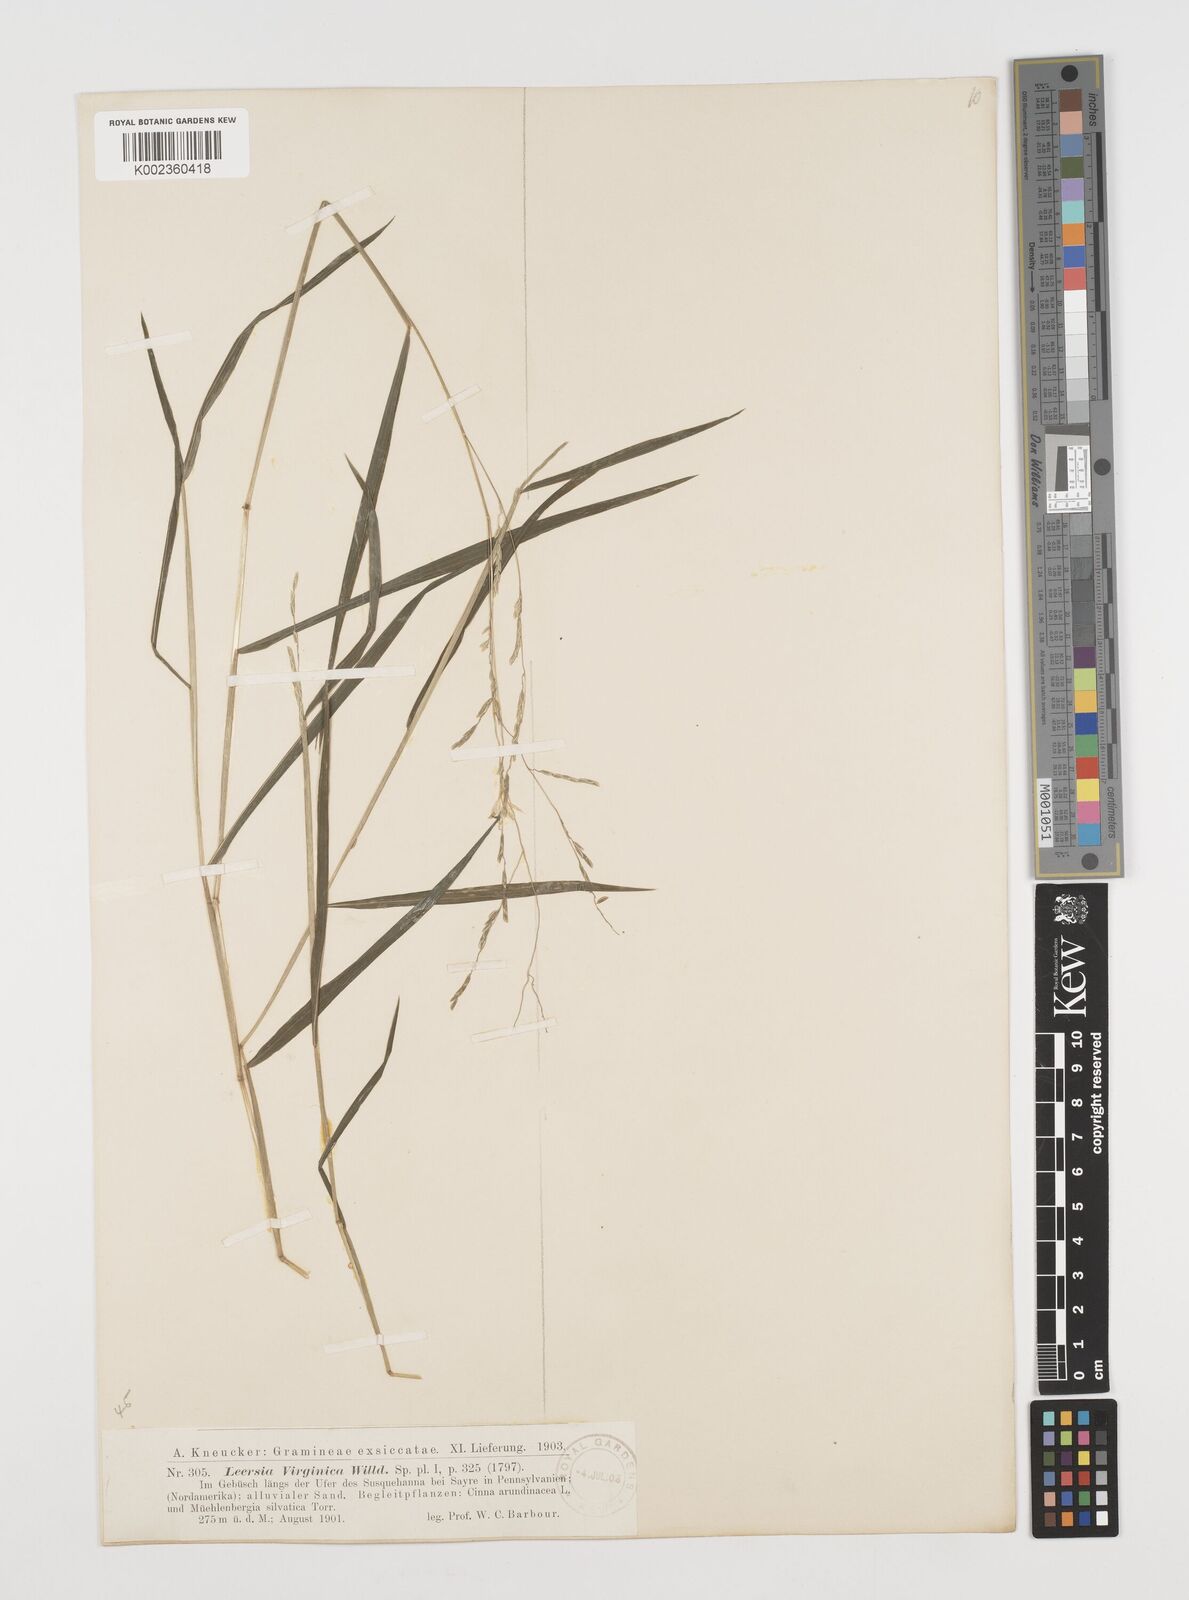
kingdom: Plantae
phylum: Tracheophyta
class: Liliopsida
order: Poales
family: Poaceae
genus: Leersia
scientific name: Leersia virginica
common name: White cutgrass
